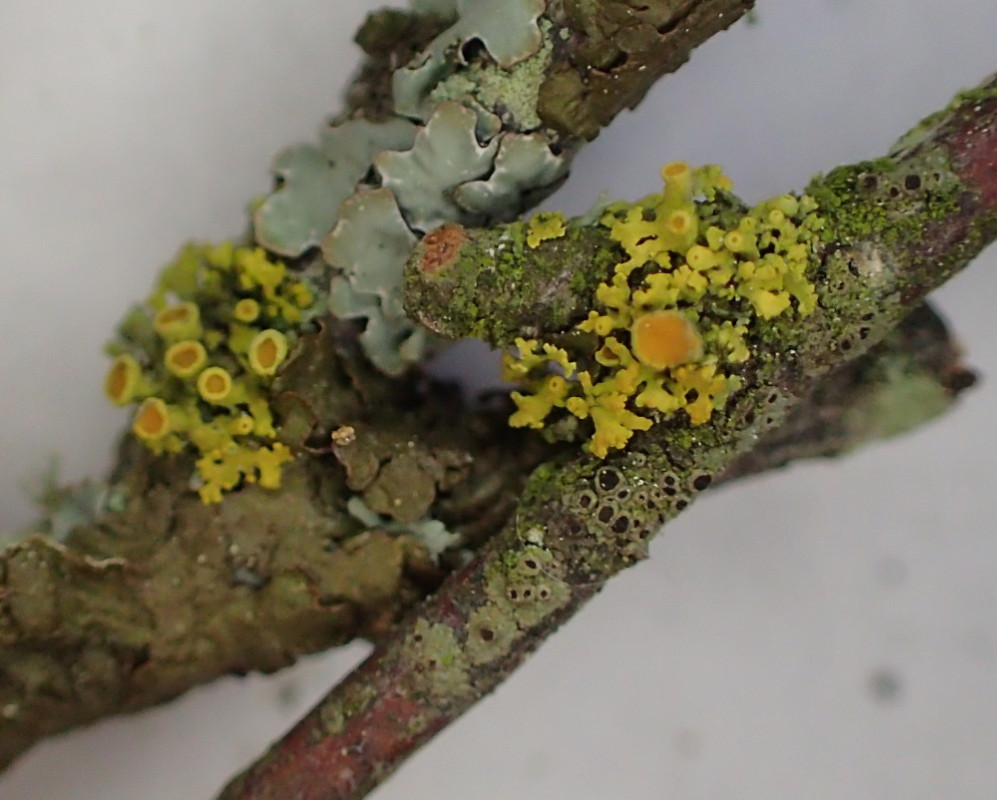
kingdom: Fungi
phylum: Ascomycota
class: Lecanoromycetes
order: Teloschistales
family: Teloschistaceae
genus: Polycauliona
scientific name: Polycauliona polycarpa
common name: mangefrugtet orangelav
